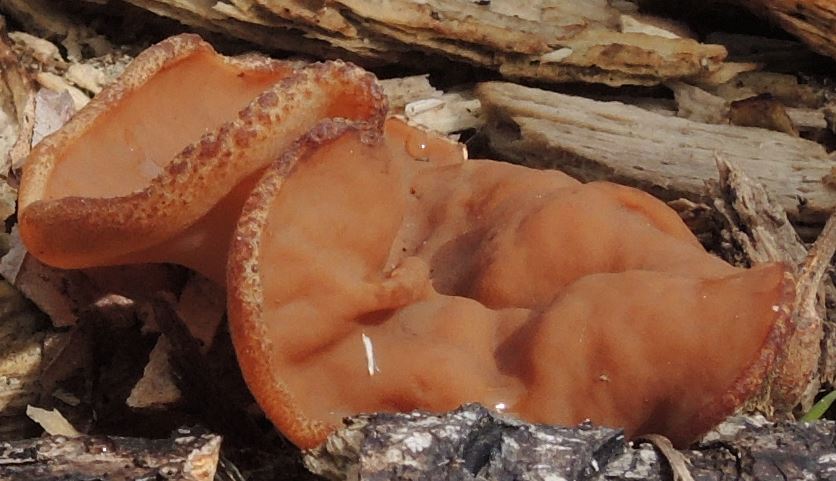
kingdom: Fungi
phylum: Ascomycota
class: Pezizomycetes
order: Pezizales
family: Discinaceae
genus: Gyromitra
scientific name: Gyromitra parma
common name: flad stenmorkel
